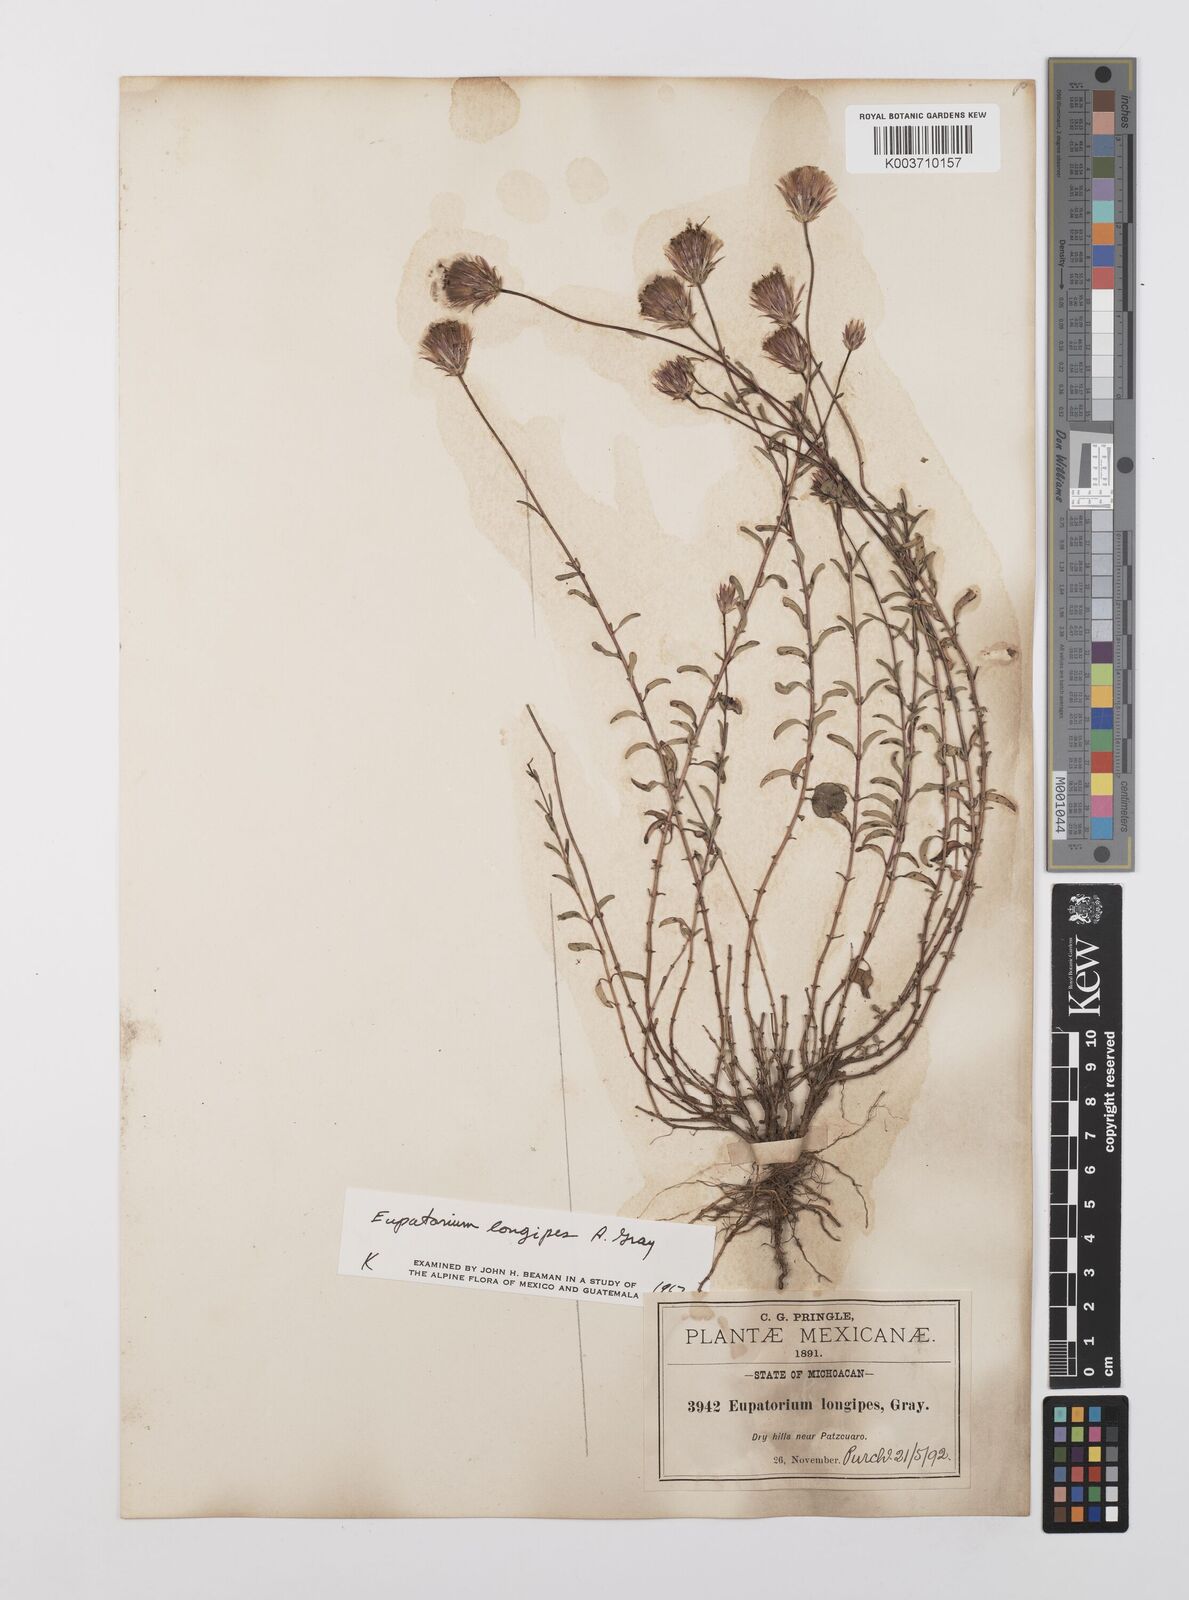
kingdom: Plantae
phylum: Tracheophyta
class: Magnoliopsida
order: Asterales
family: Asteraceae
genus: Brickellia
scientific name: Brickellia pedunculosa
